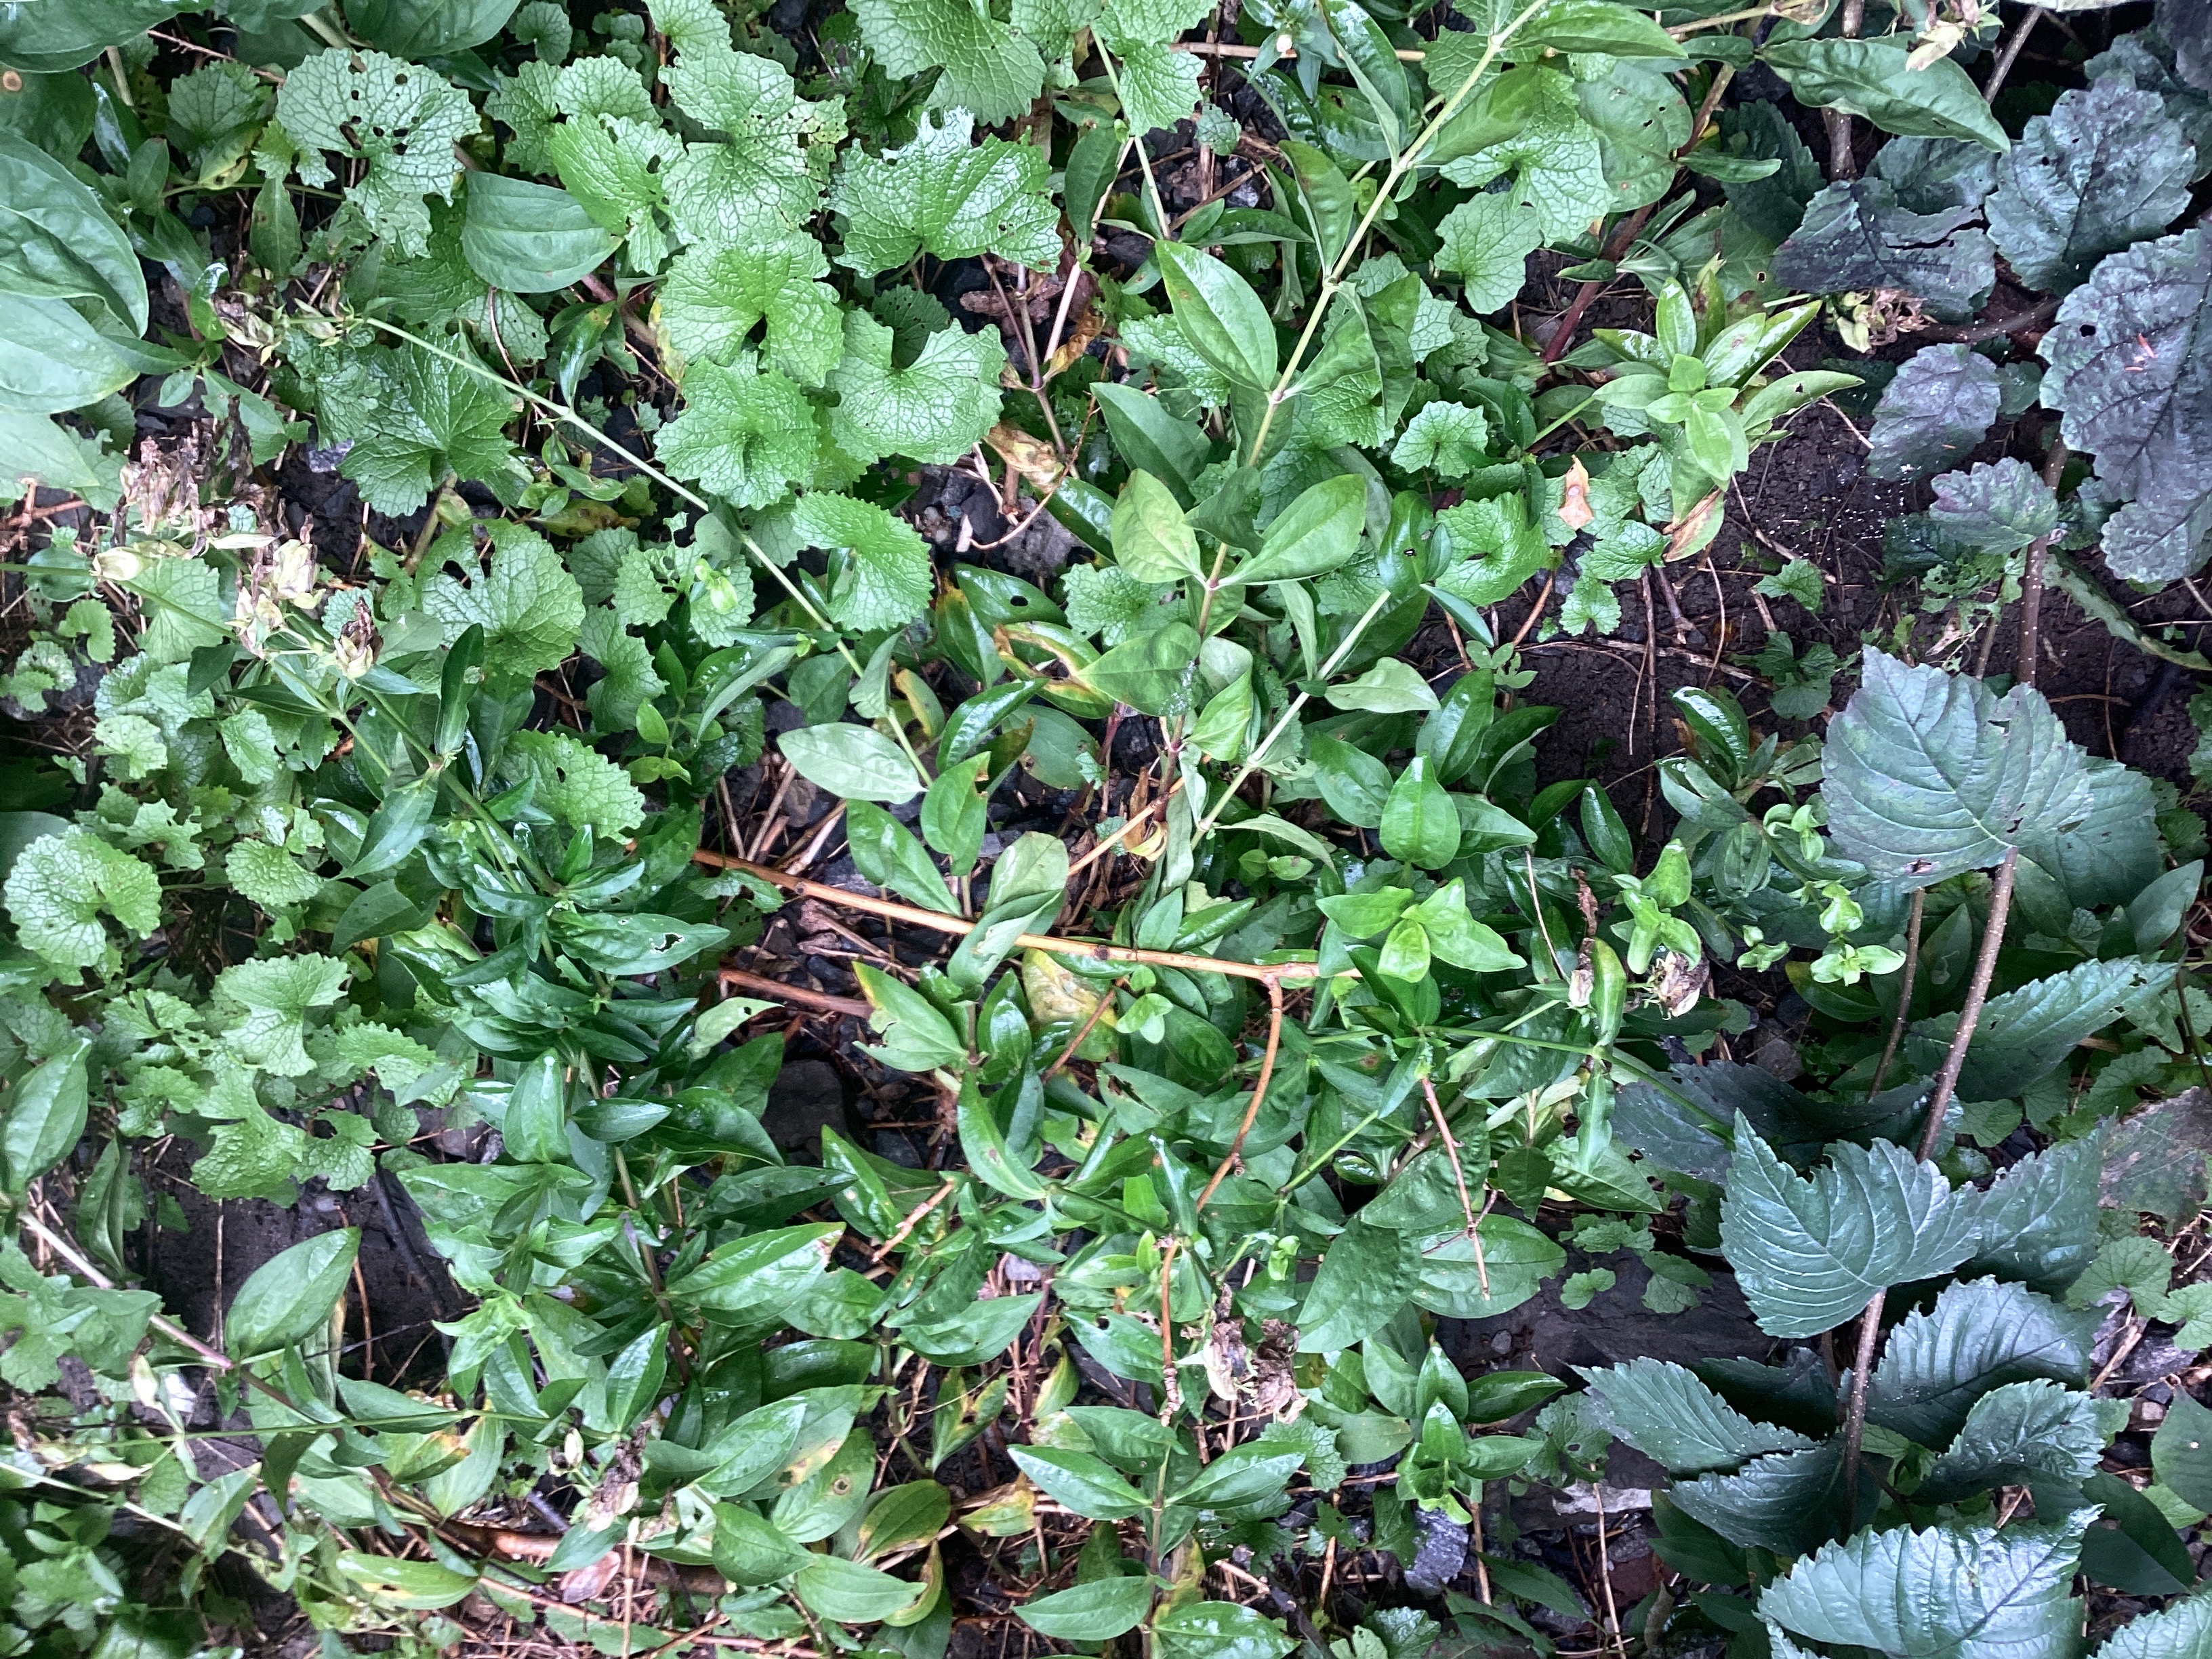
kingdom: Plantae
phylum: Tracheophyta
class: Magnoliopsida
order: Caryophyllales
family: Caryophyllaceae
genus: Saponaria
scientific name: Saponaria officinalis
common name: såpeurt
